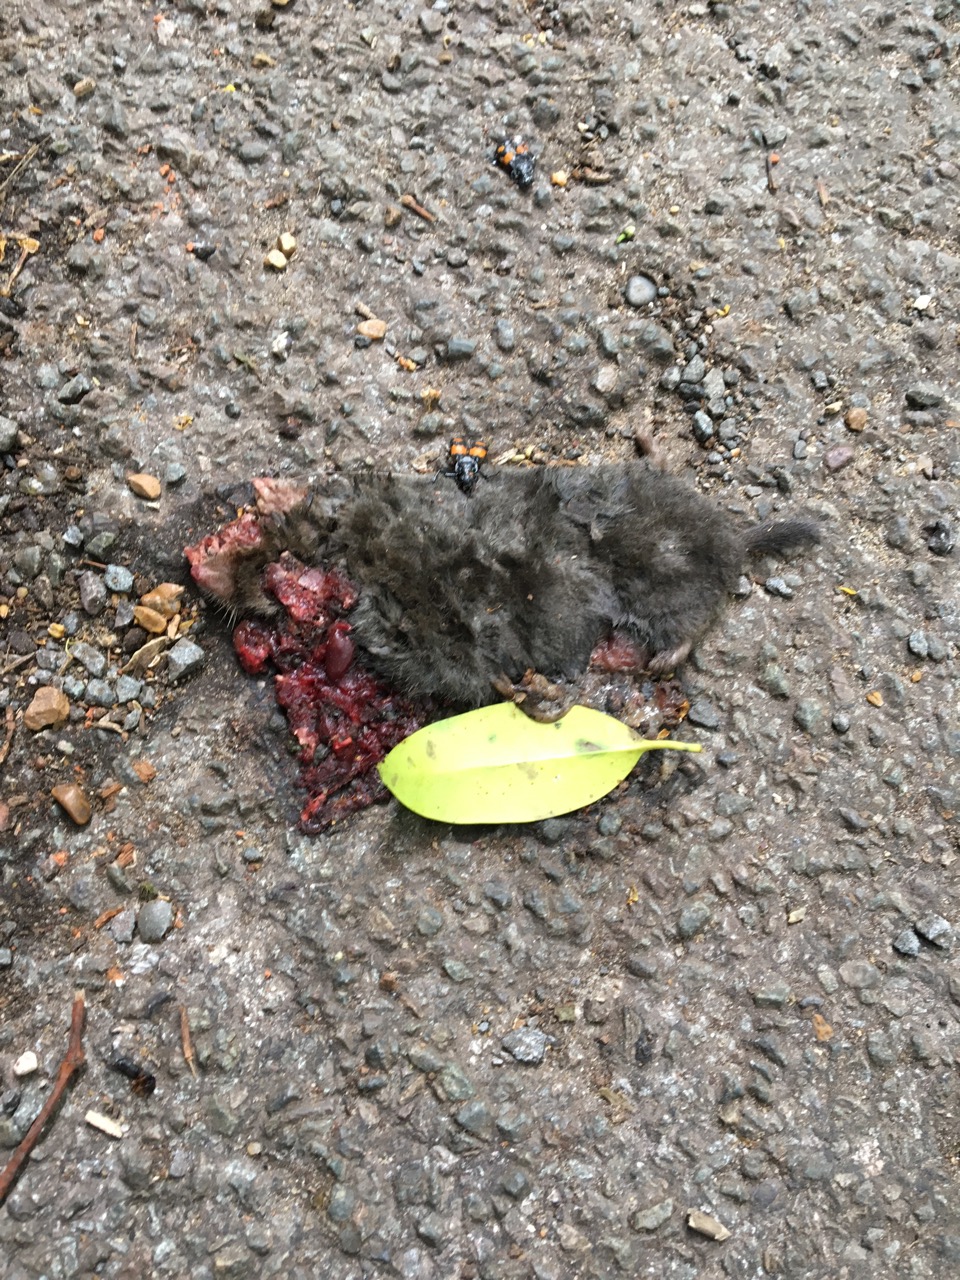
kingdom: Animalia
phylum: Chordata
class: Mammalia
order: Soricomorpha
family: Talpidae
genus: Talpa
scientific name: Talpa europaea
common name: European mole
